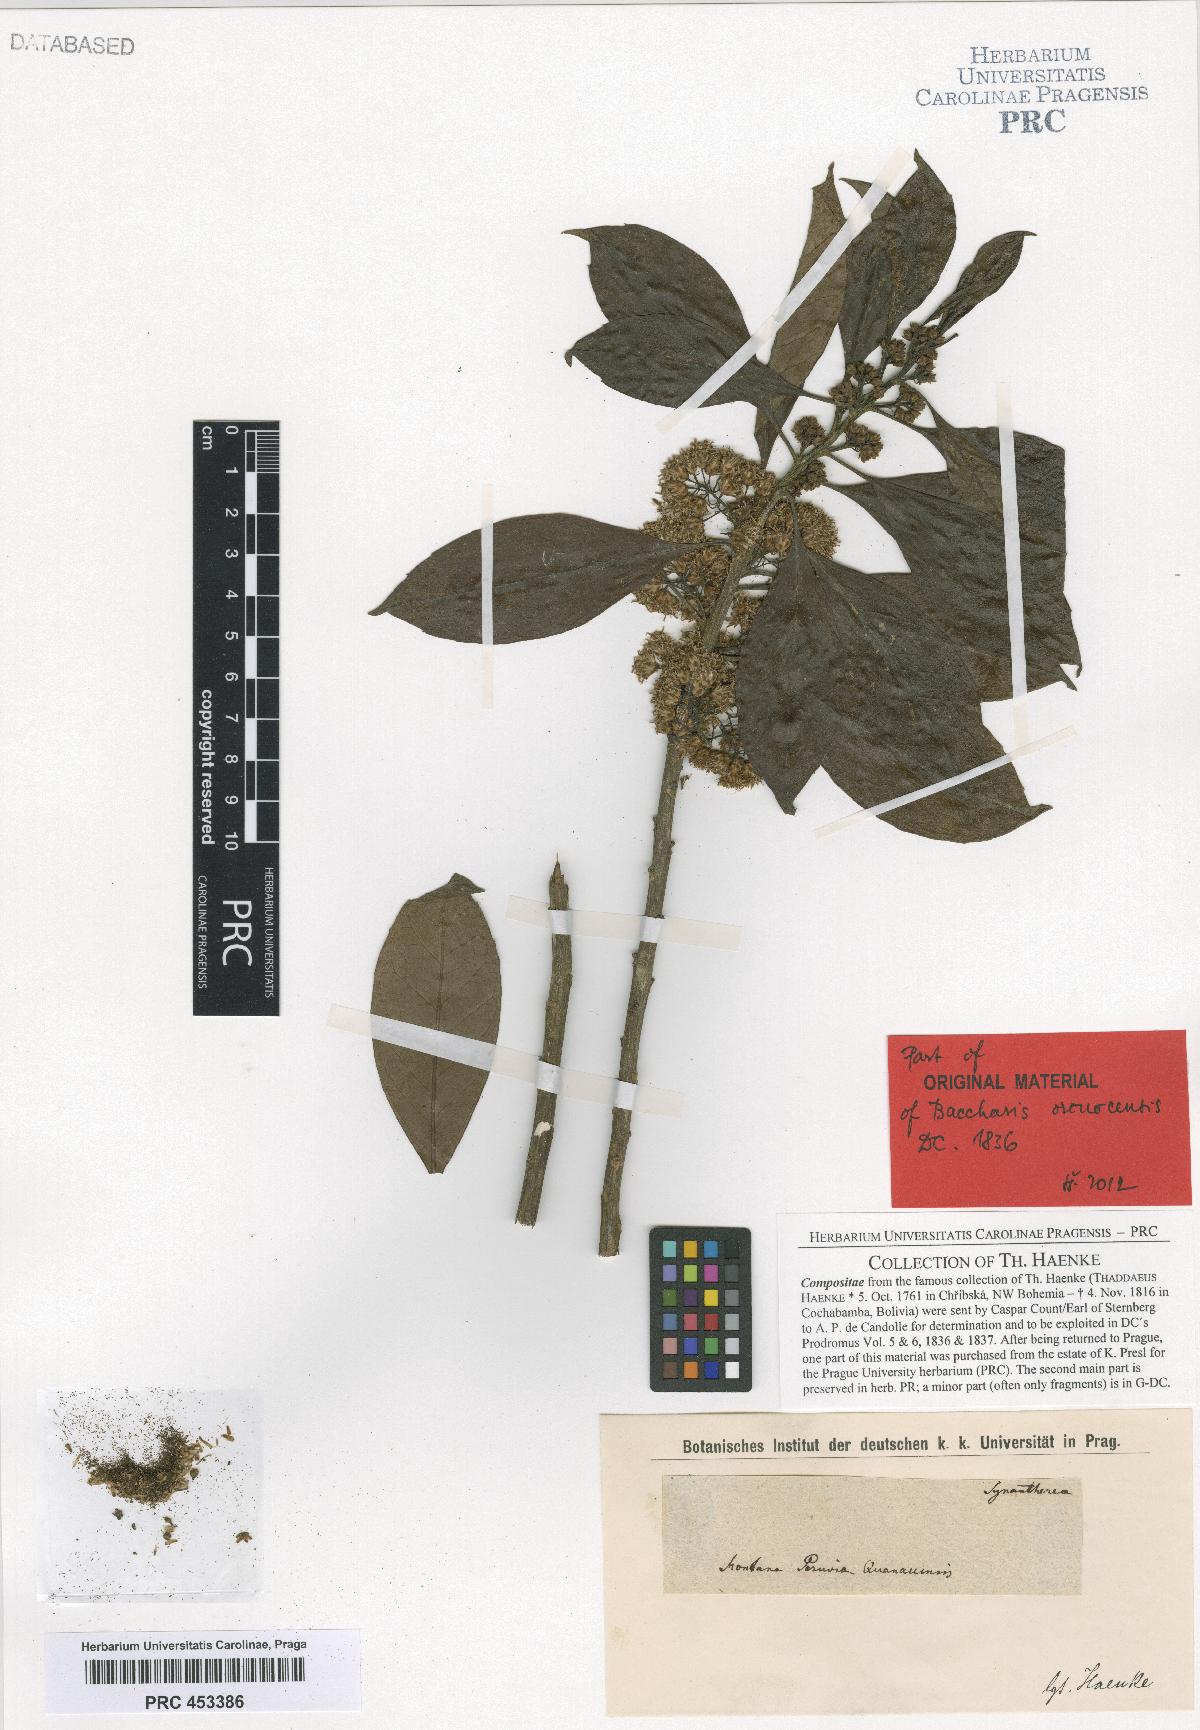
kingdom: Plantae
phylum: Tracheophyta
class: Magnoliopsida
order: Asterales
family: Asteraceae
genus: Baccharis
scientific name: Baccharis nitida
